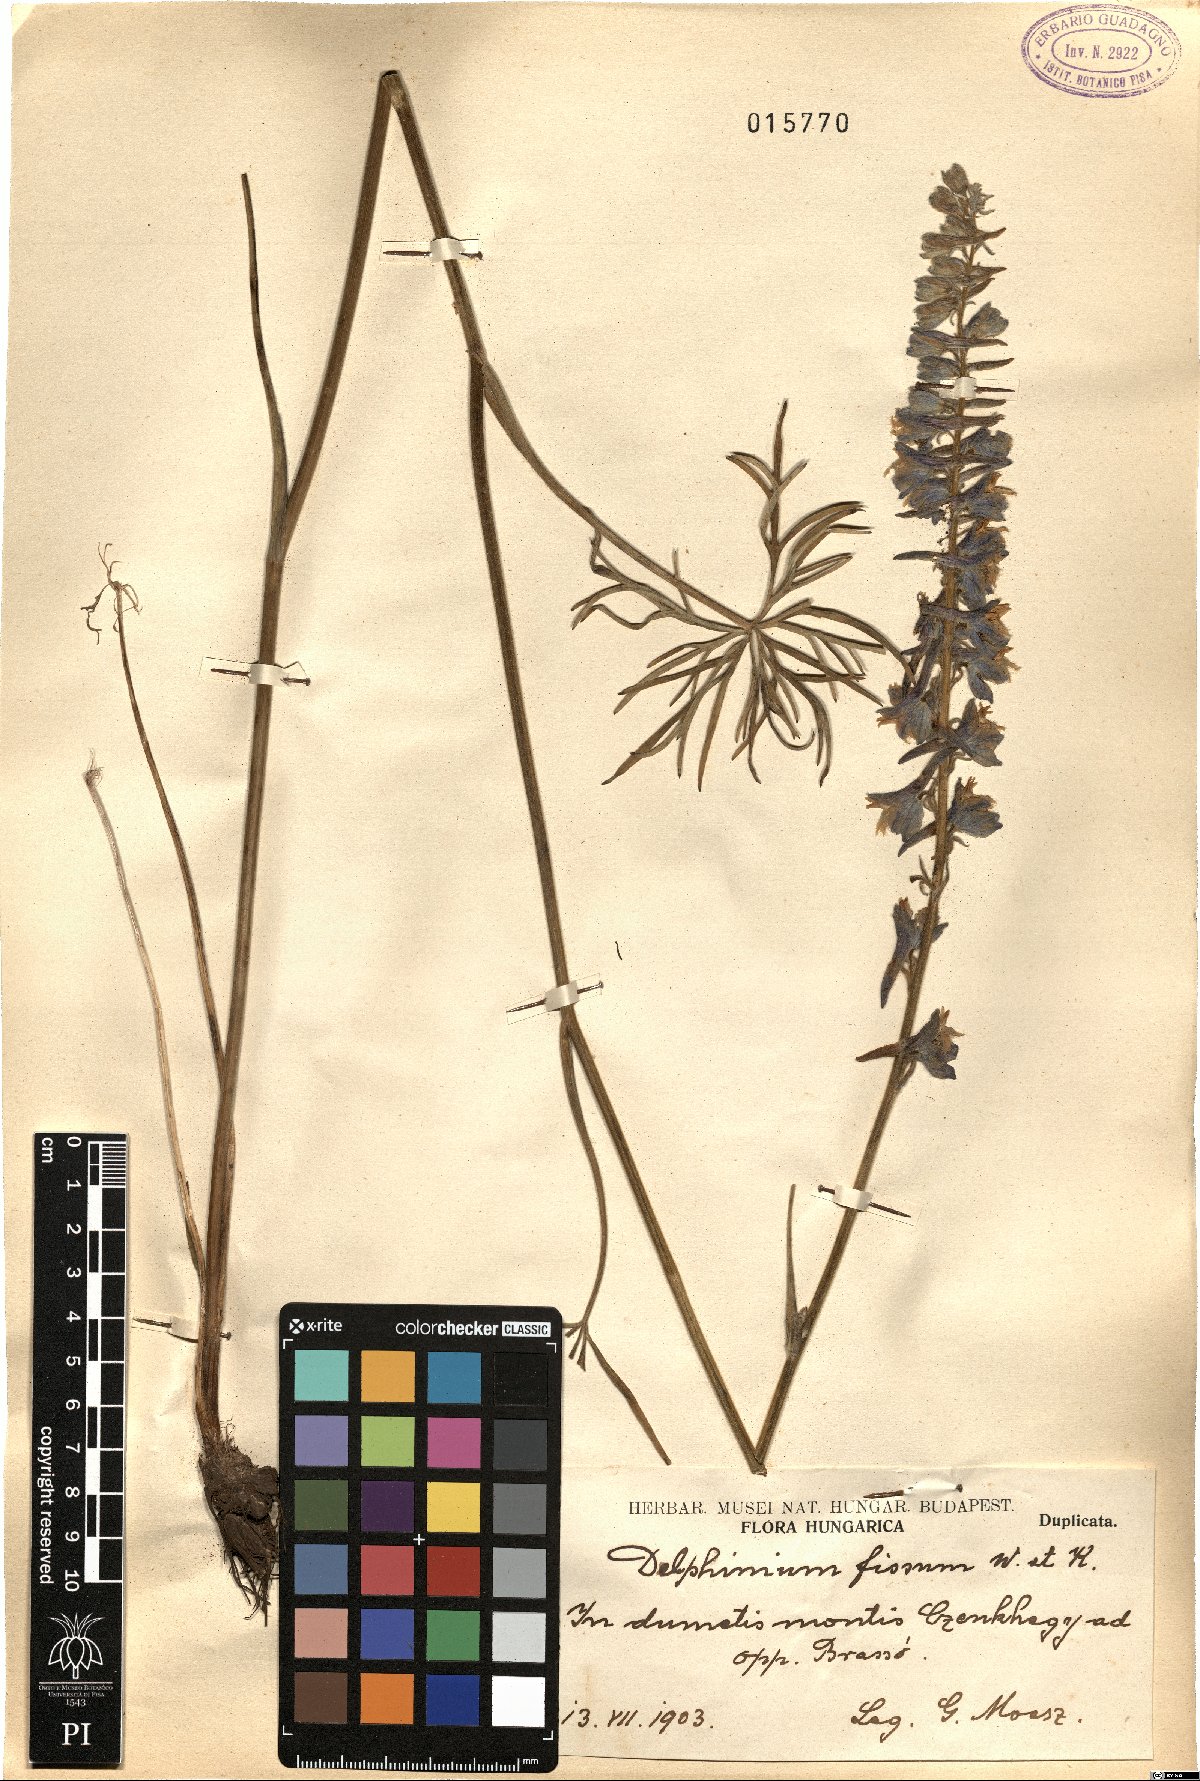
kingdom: Plantae
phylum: Tracheophyta
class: Magnoliopsida
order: Ranunculales
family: Ranunculaceae
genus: Delphinium
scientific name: Delphinium fissum
